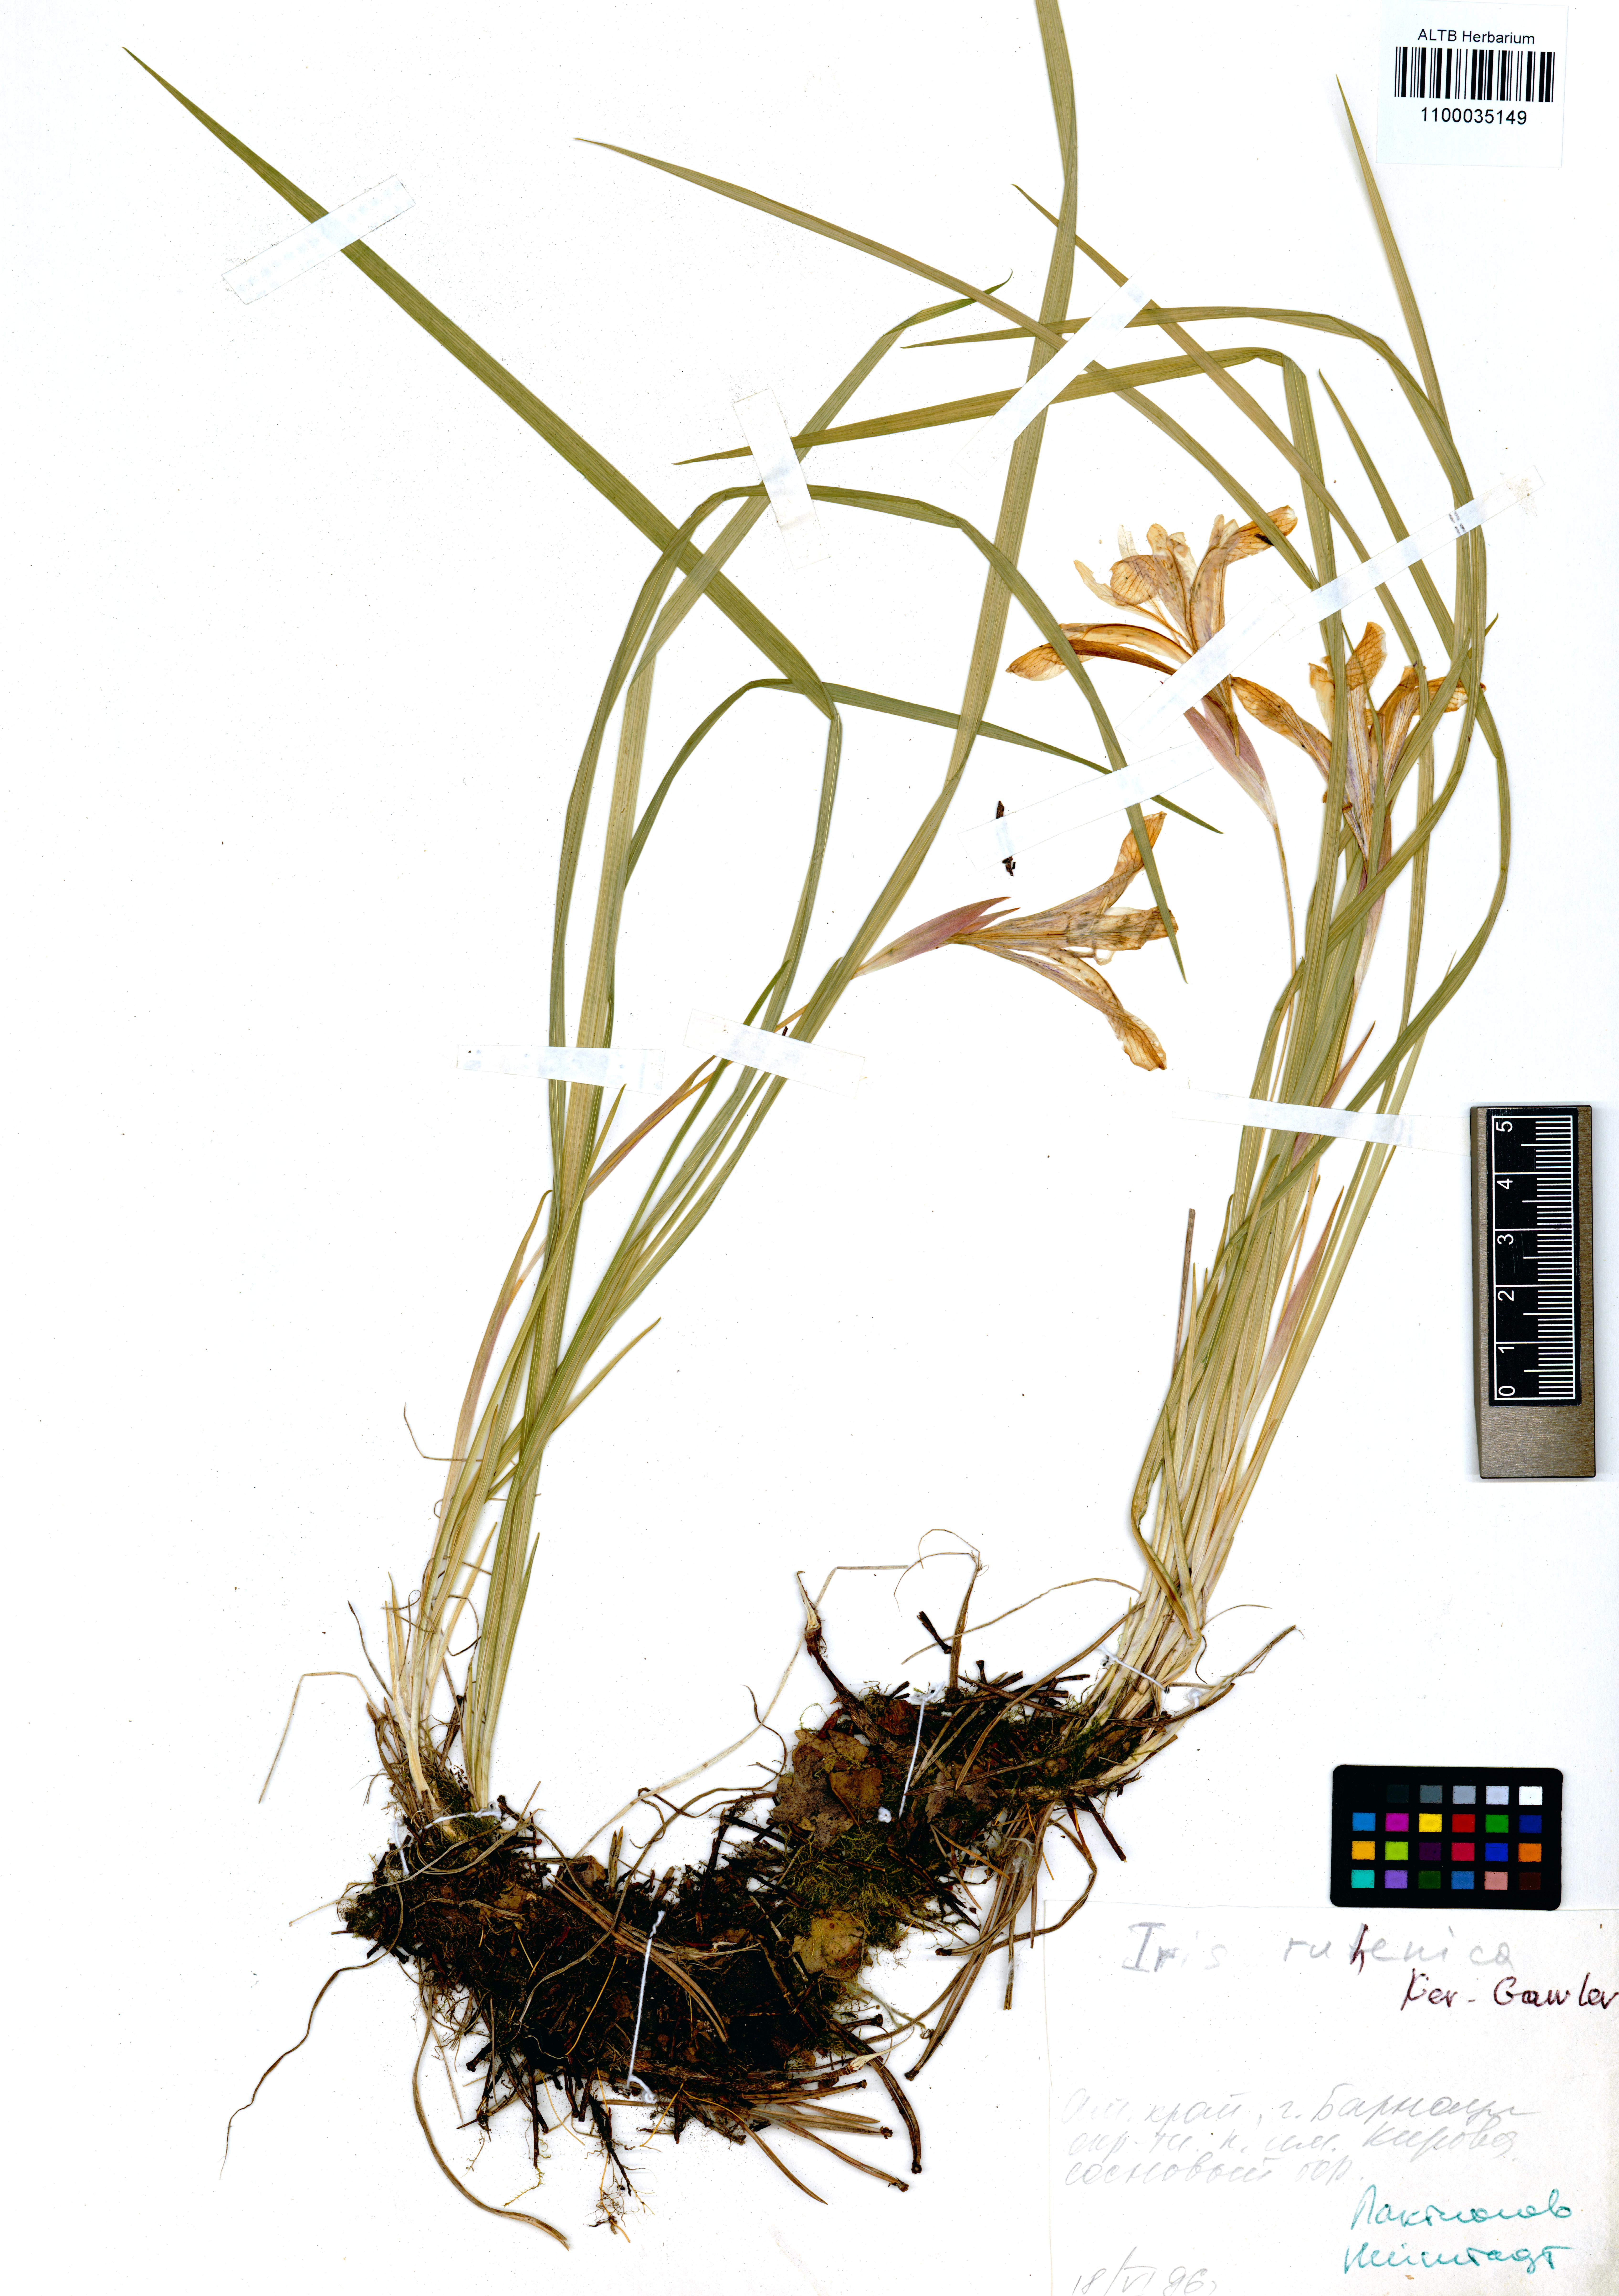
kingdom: Plantae
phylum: Tracheophyta
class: Liliopsida
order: Asparagales
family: Iridaceae
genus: Iris
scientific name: Iris ruthenica
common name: Purple-bract iris
